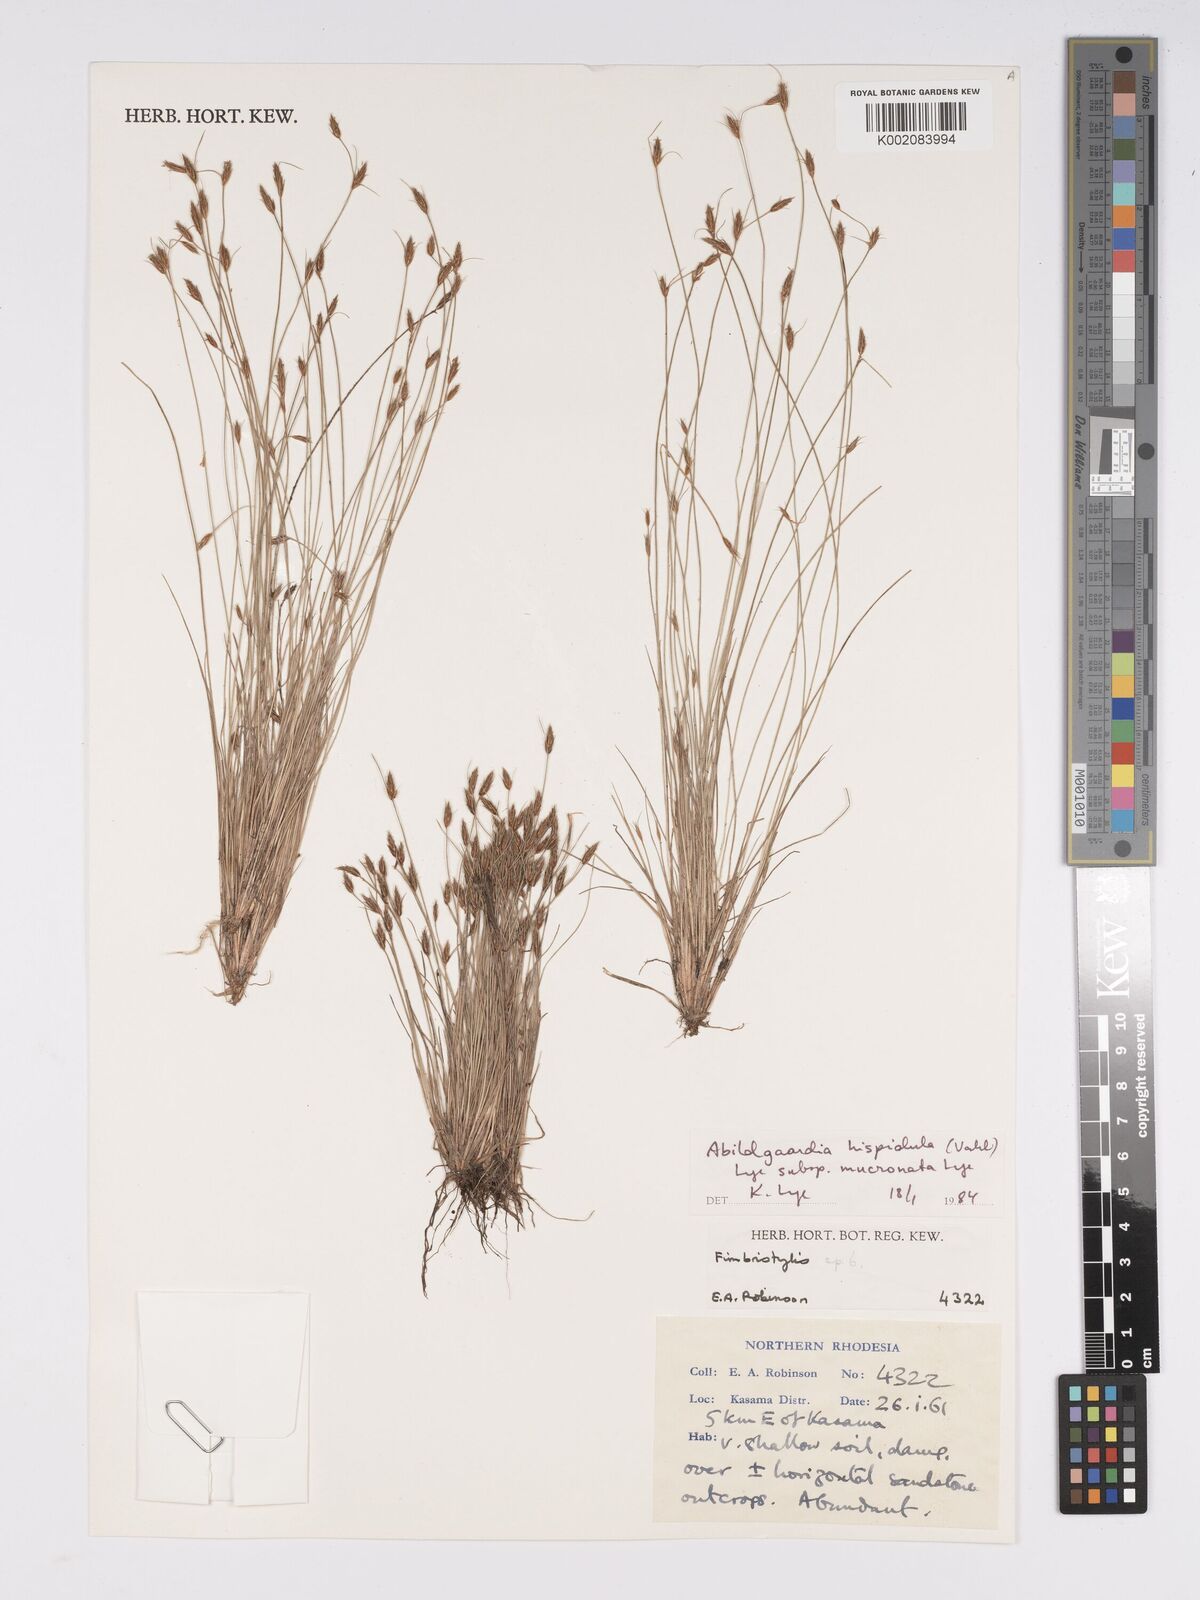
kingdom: Plantae
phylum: Tracheophyta
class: Liliopsida
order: Poales
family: Cyperaceae
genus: Bulbostylis
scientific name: Bulbostylis hispidula
